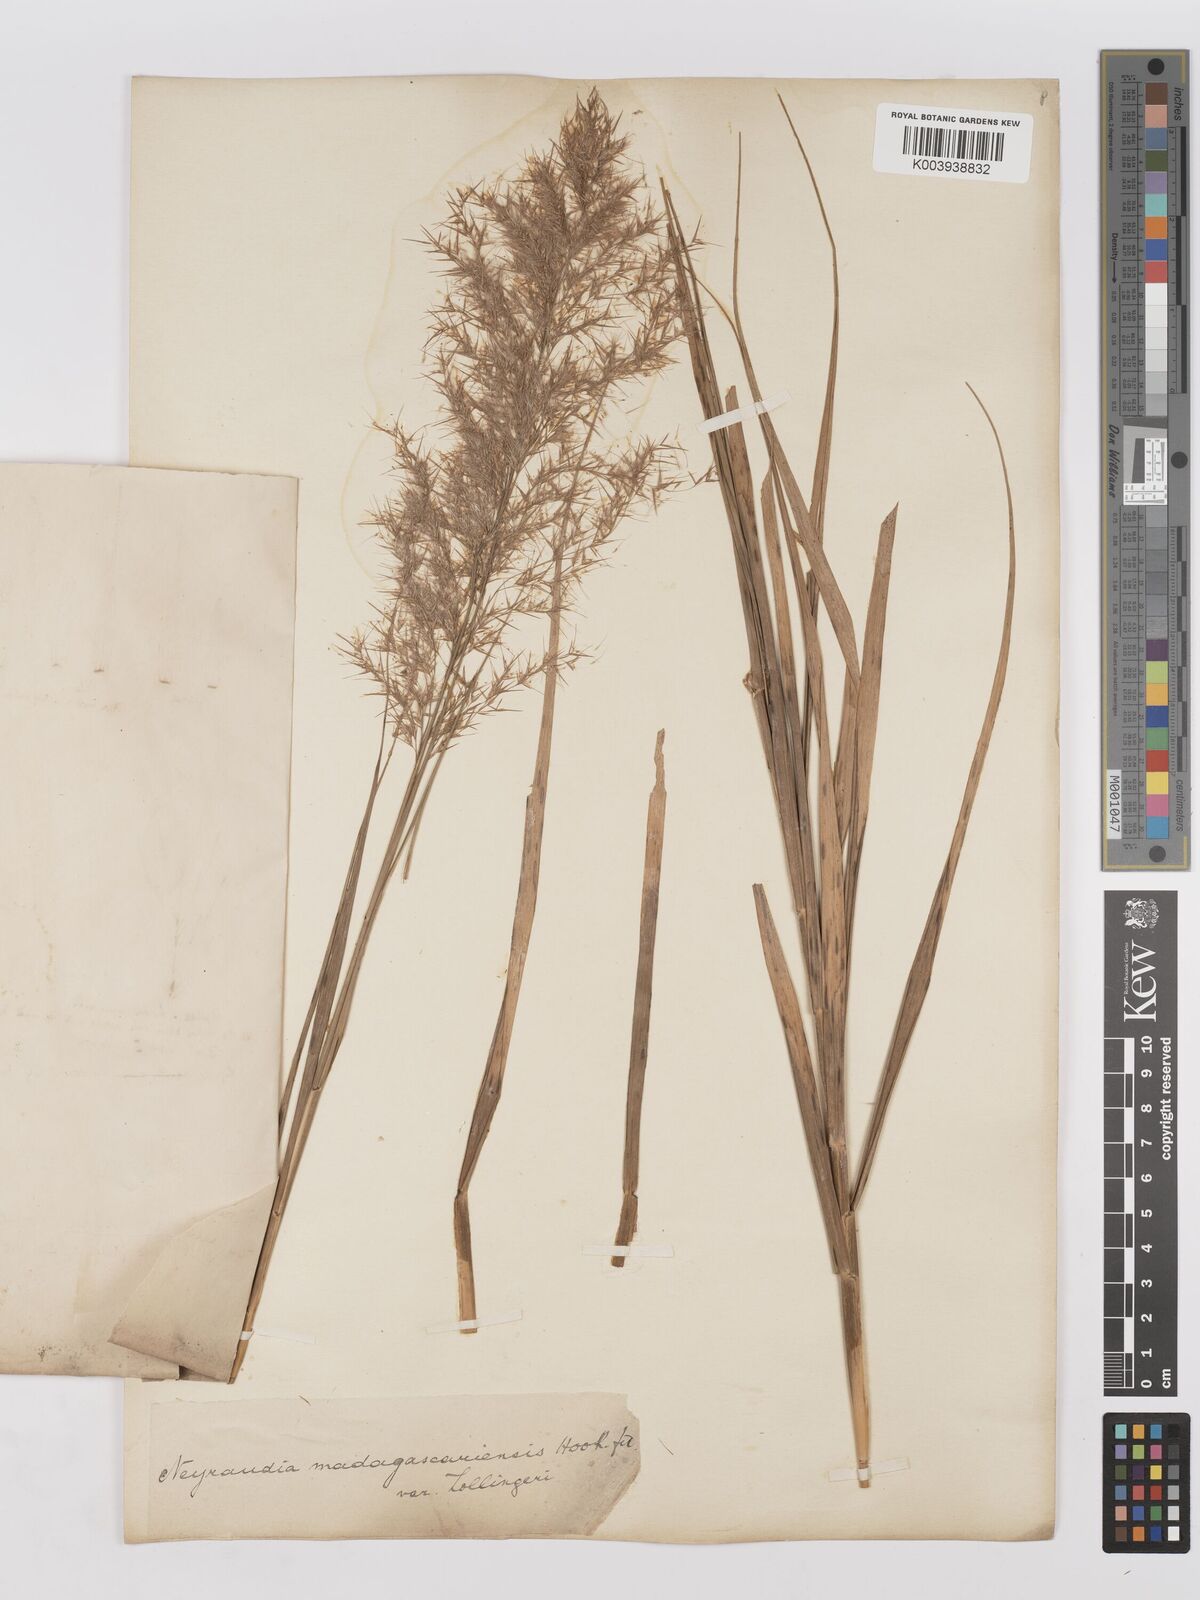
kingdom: Plantae
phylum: Tracheophyta
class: Liliopsida
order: Poales
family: Poaceae
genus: Phragmites
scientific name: Phragmites karka
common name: Tropical reed
